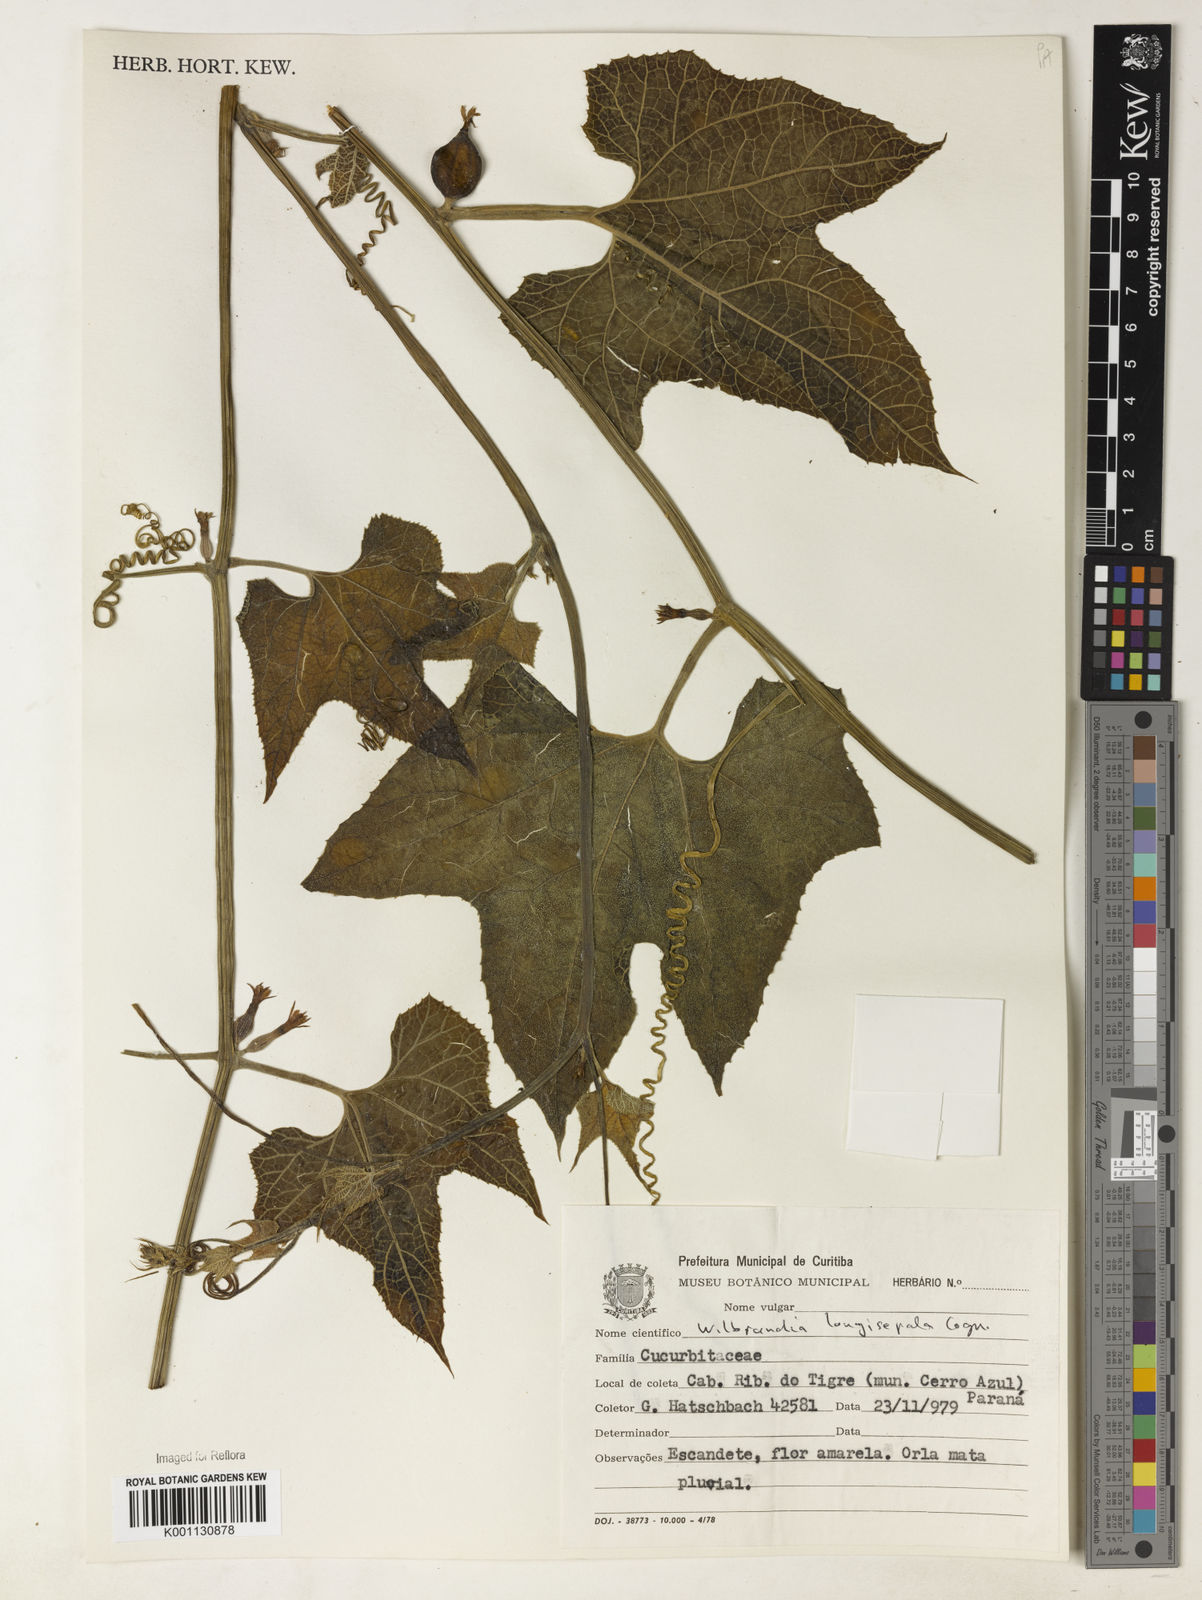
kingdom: Plantae
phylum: Tracheophyta
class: Magnoliopsida
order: Cucurbitales
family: Cucurbitaceae
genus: Wilbrandia
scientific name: Wilbrandia longisepala
